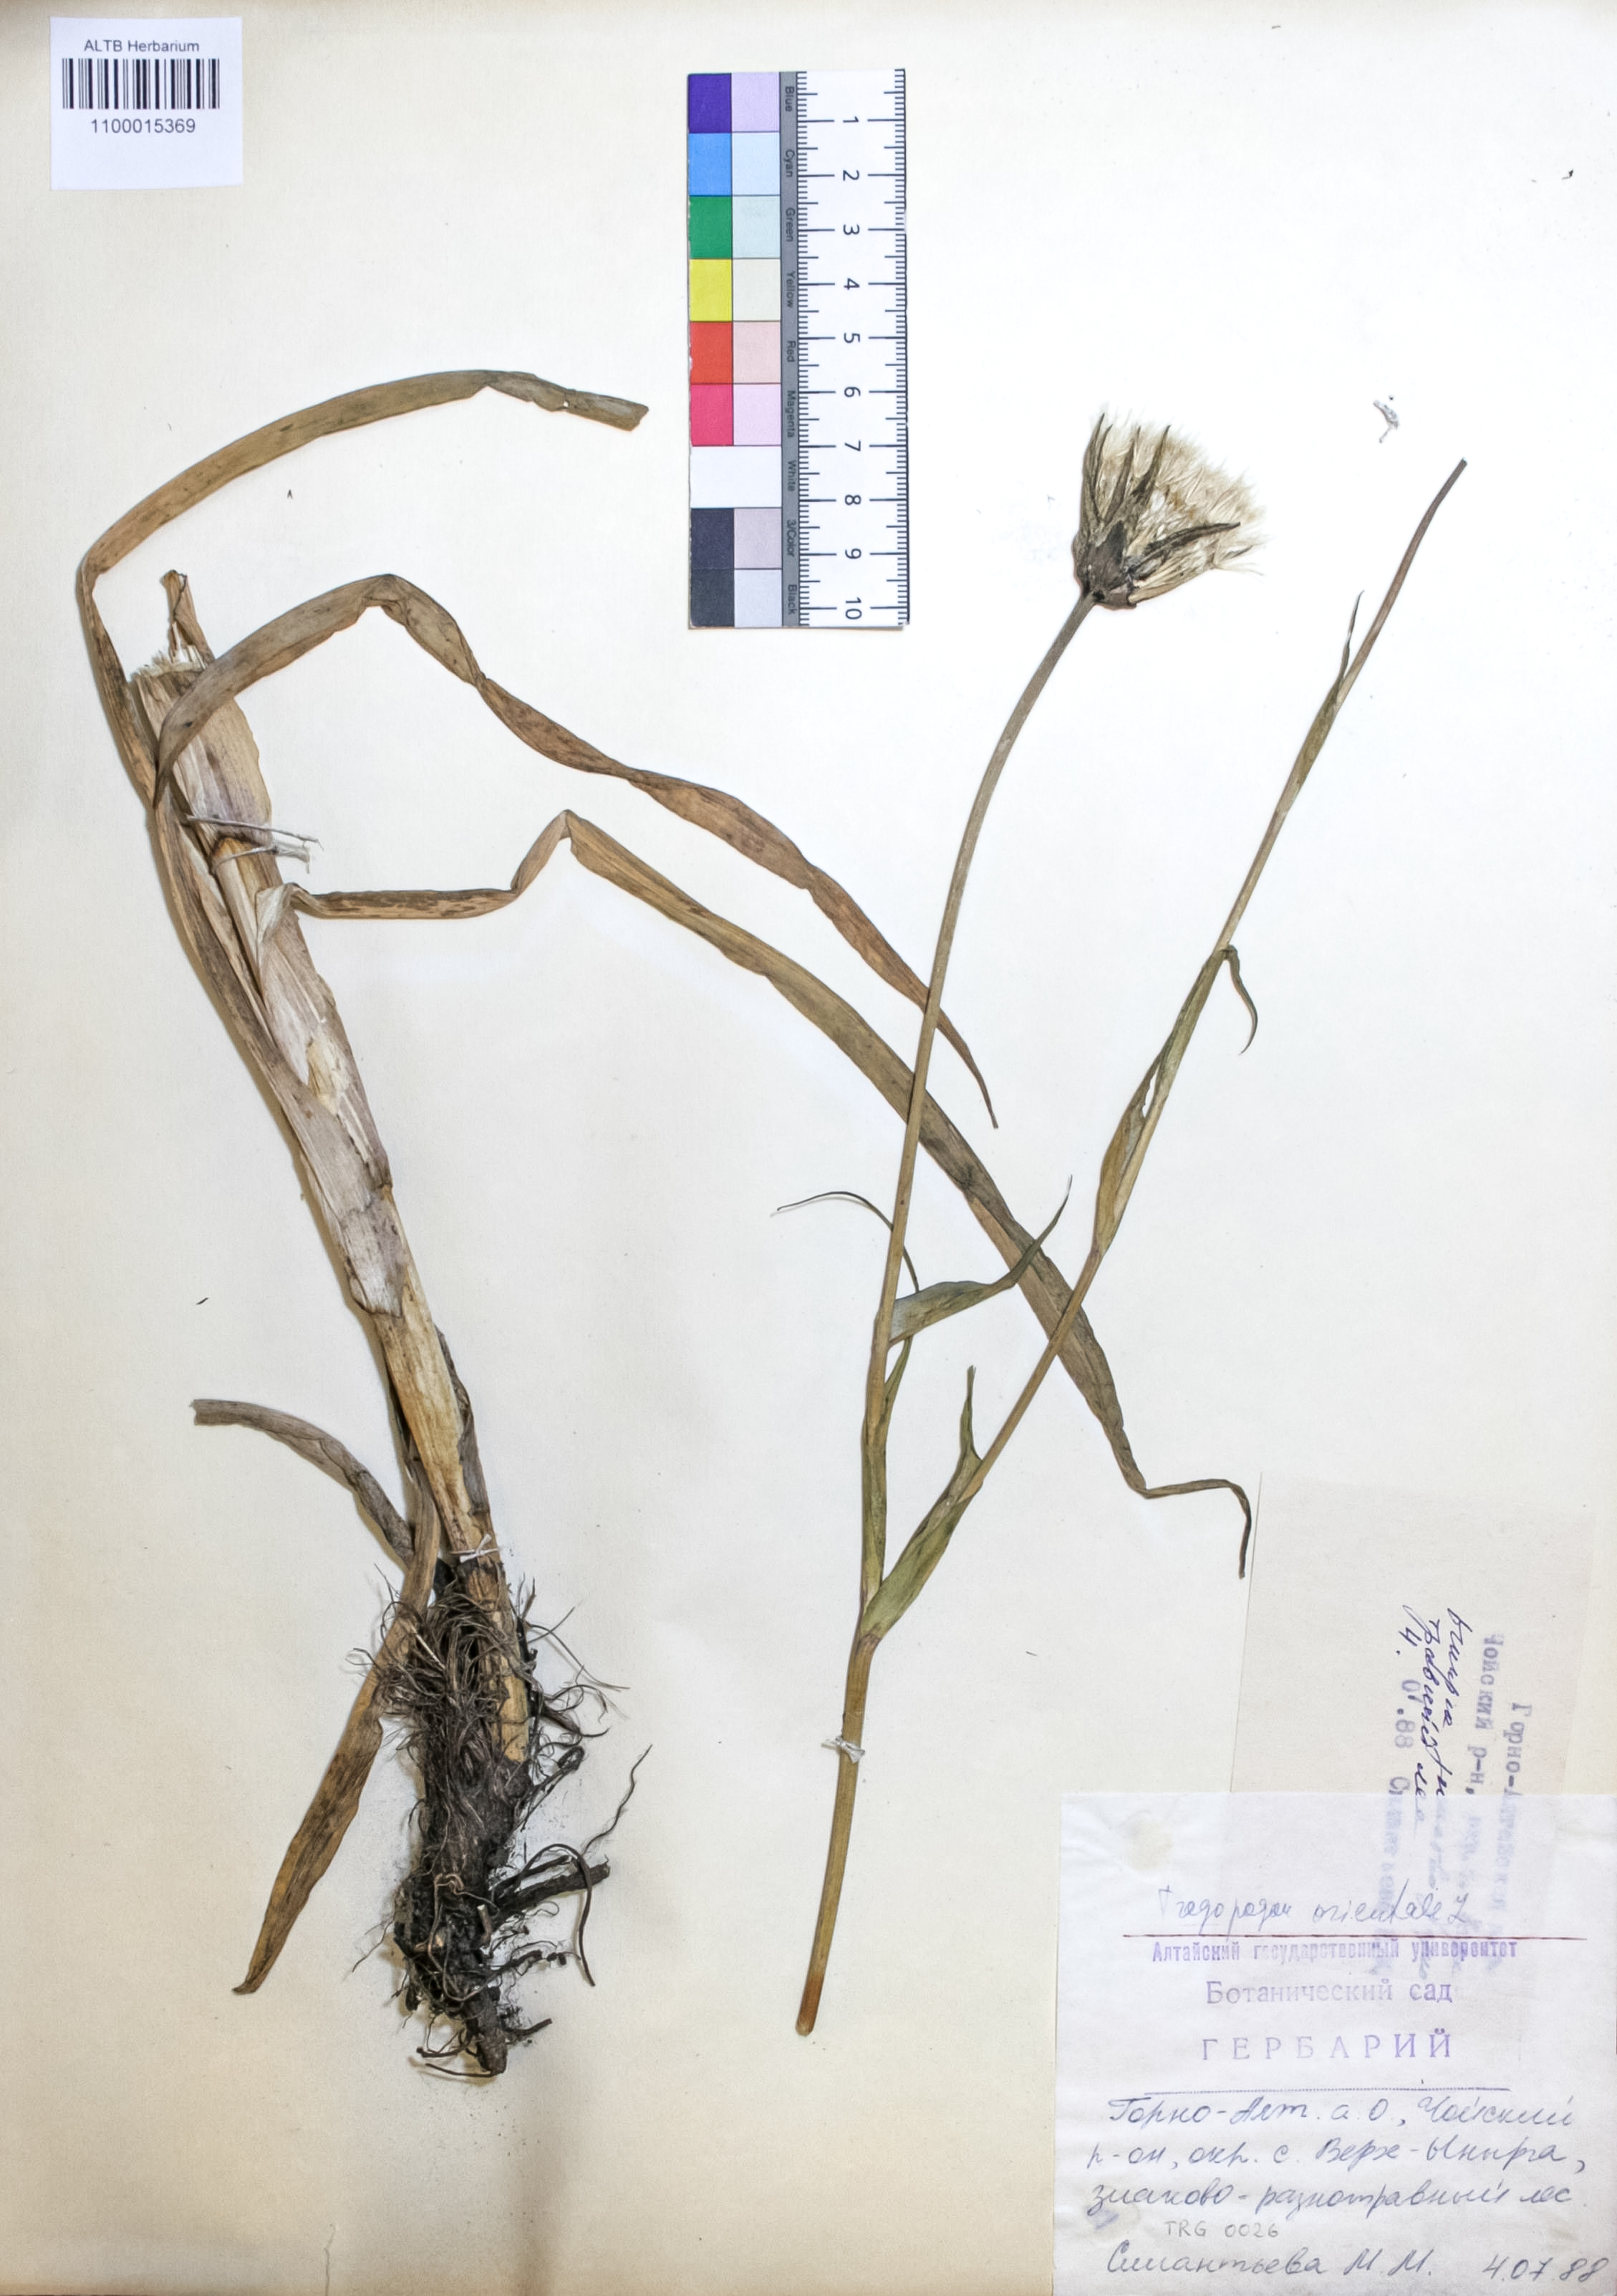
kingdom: Plantae
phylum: Tracheophyta
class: Magnoliopsida
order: Asterales
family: Asteraceae
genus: Tragopogon
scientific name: Tragopogon orientalis
